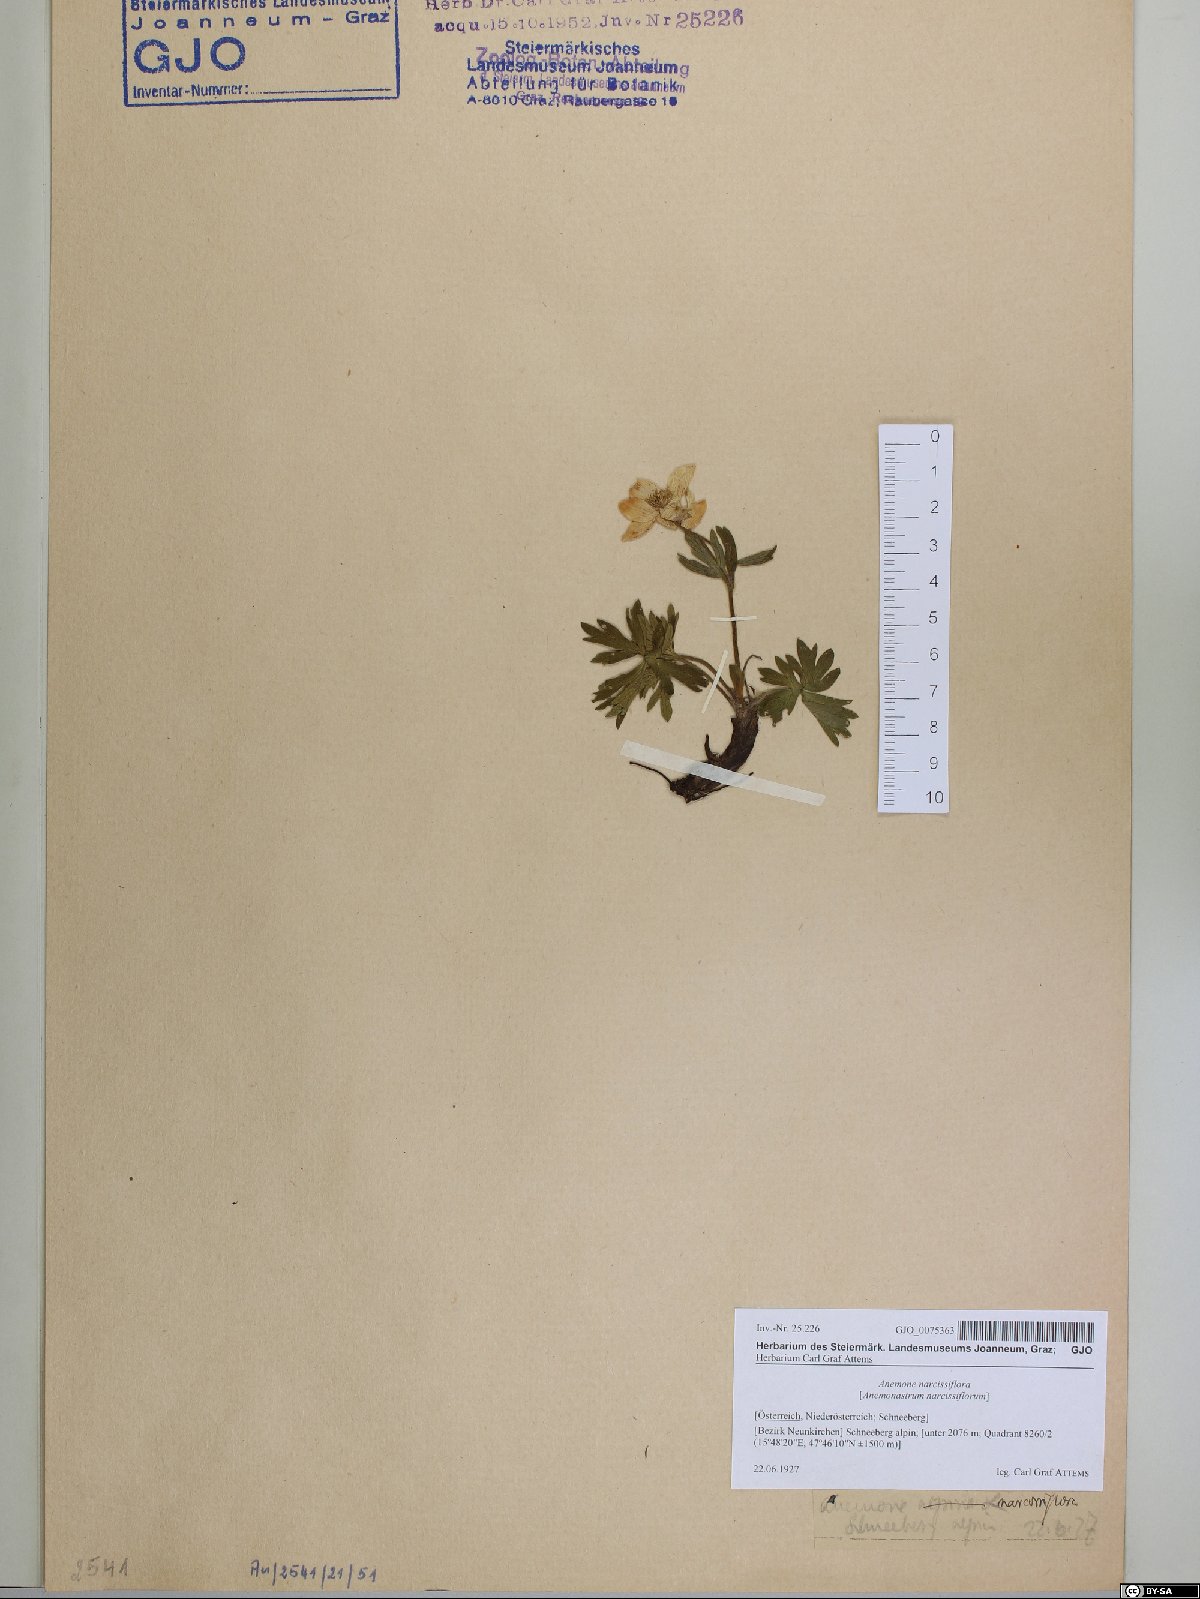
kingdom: Plantae
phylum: Tracheophyta
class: Magnoliopsida
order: Ranunculales
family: Ranunculaceae
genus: Anemonastrum
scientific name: Anemonastrum narcissiflorum
